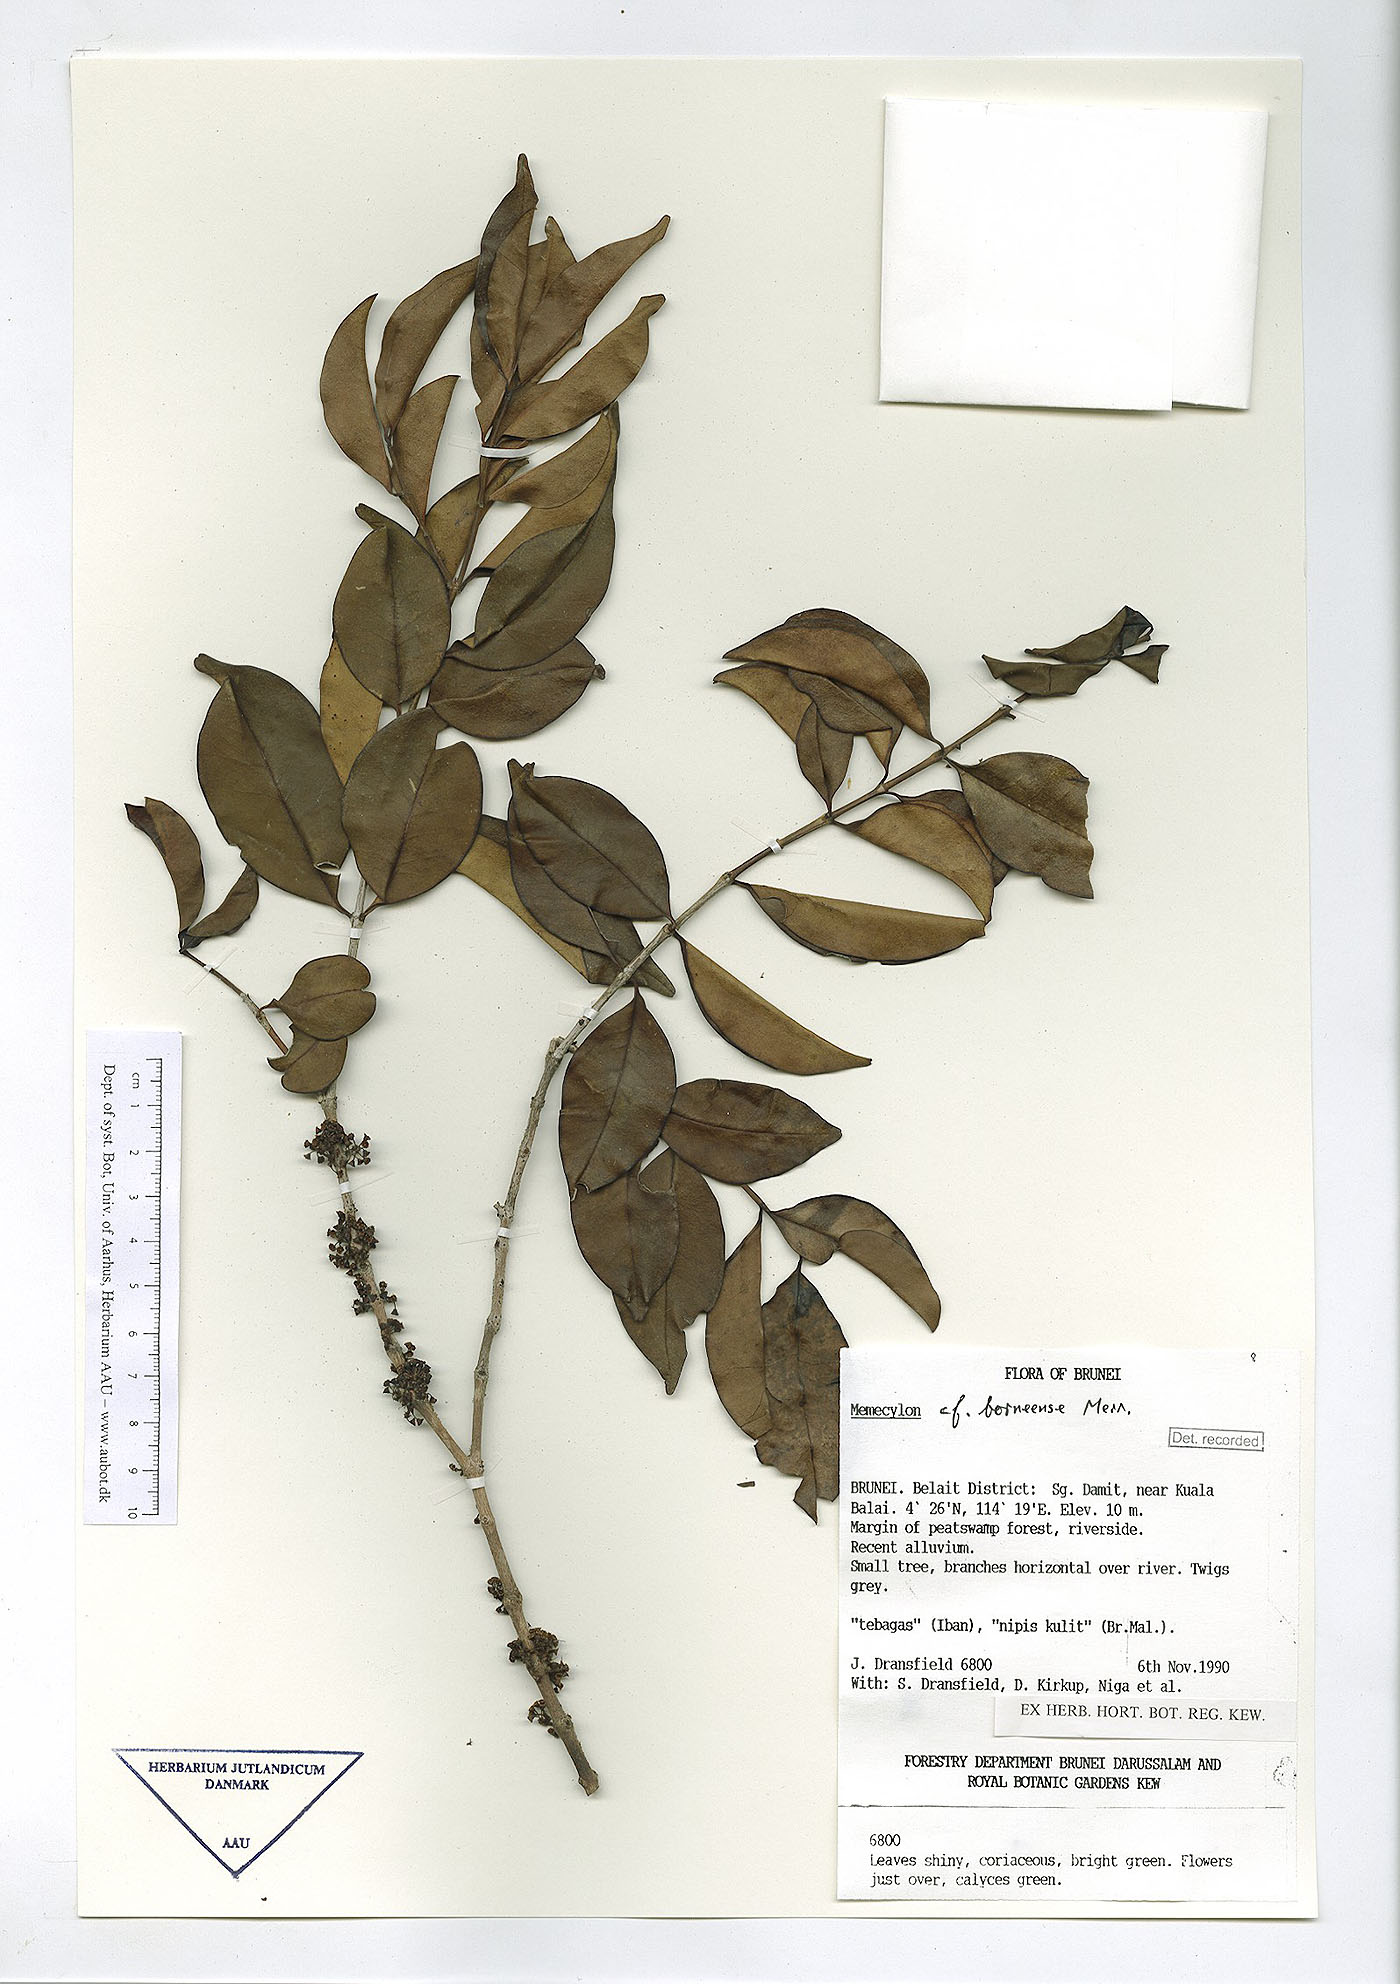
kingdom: Plantae
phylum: Tracheophyta
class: Magnoliopsida
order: Myrtales
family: Melastomataceae
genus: Memecylon
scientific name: Memecylon borneense
